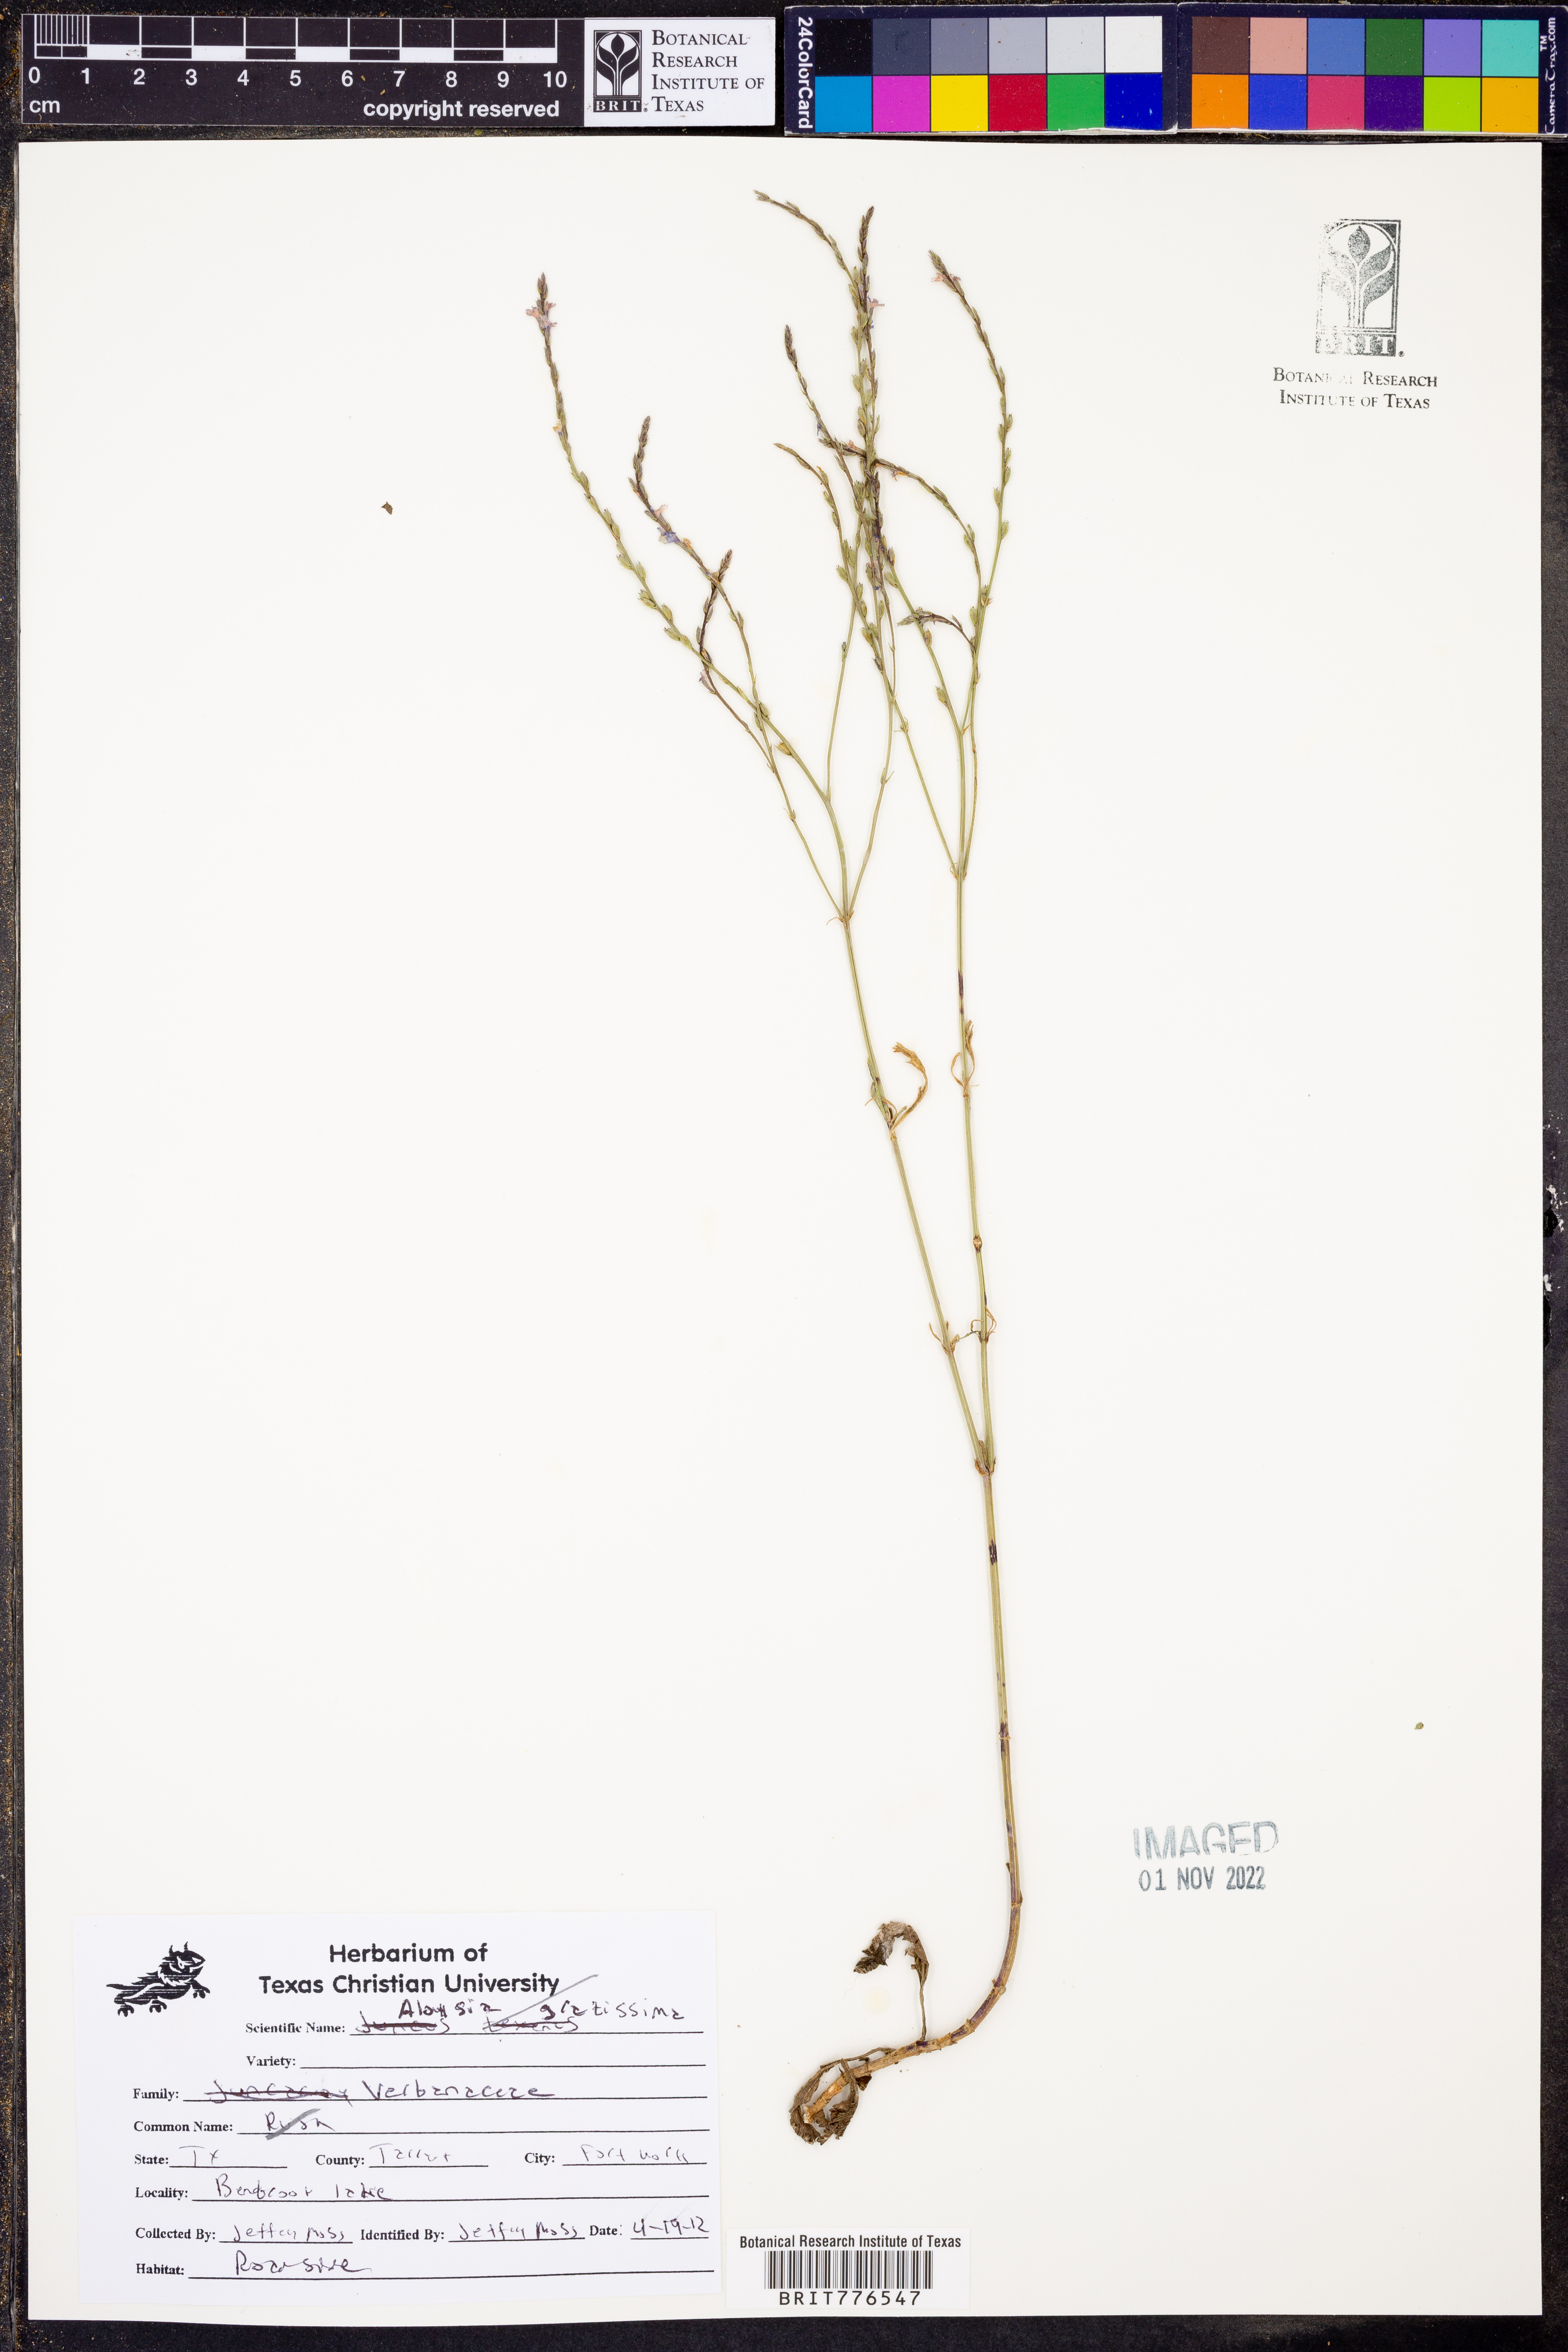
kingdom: Plantae
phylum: Tracheophyta
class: Magnoliopsida
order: Lamiales
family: Verbenaceae
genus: Aloysia
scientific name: Aloysia gratissima
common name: Common bee-brush
